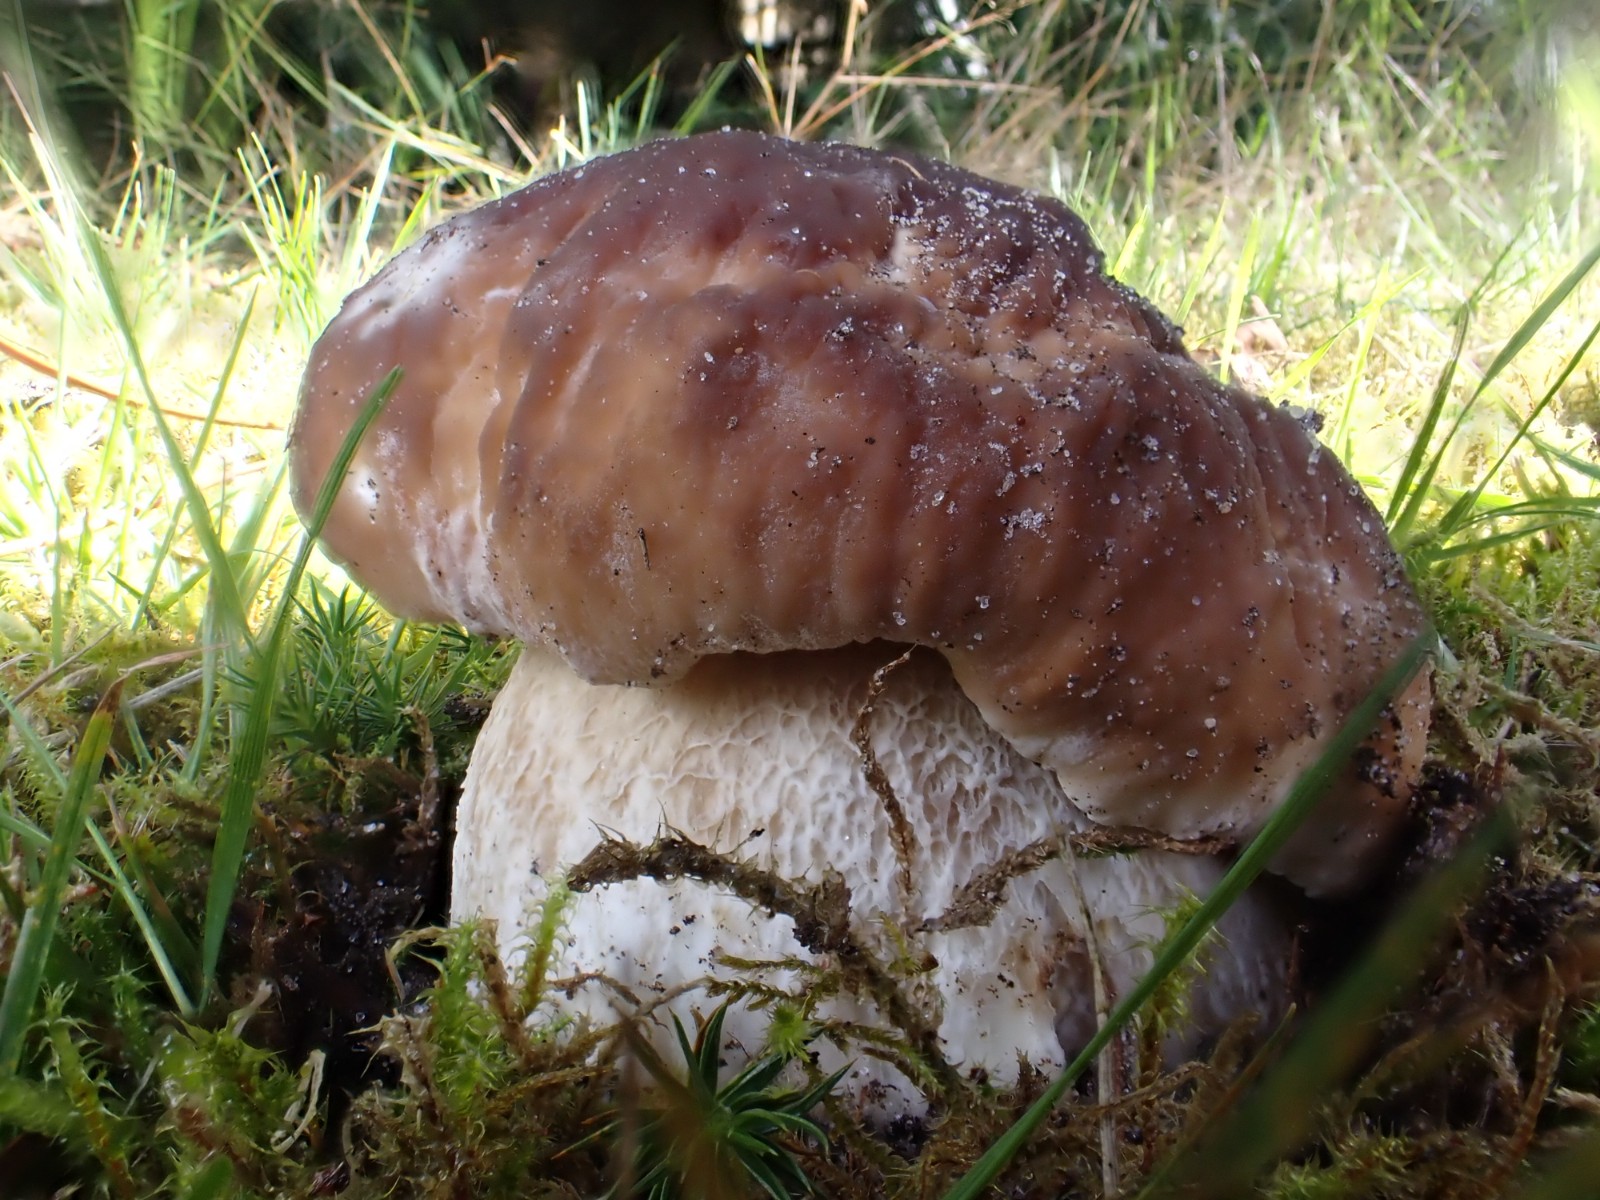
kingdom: Fungi
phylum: Basidiomycota
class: Agaricomycetes
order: Boletales
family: Boletaceae
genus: Boletus
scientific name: Boletus edulis
